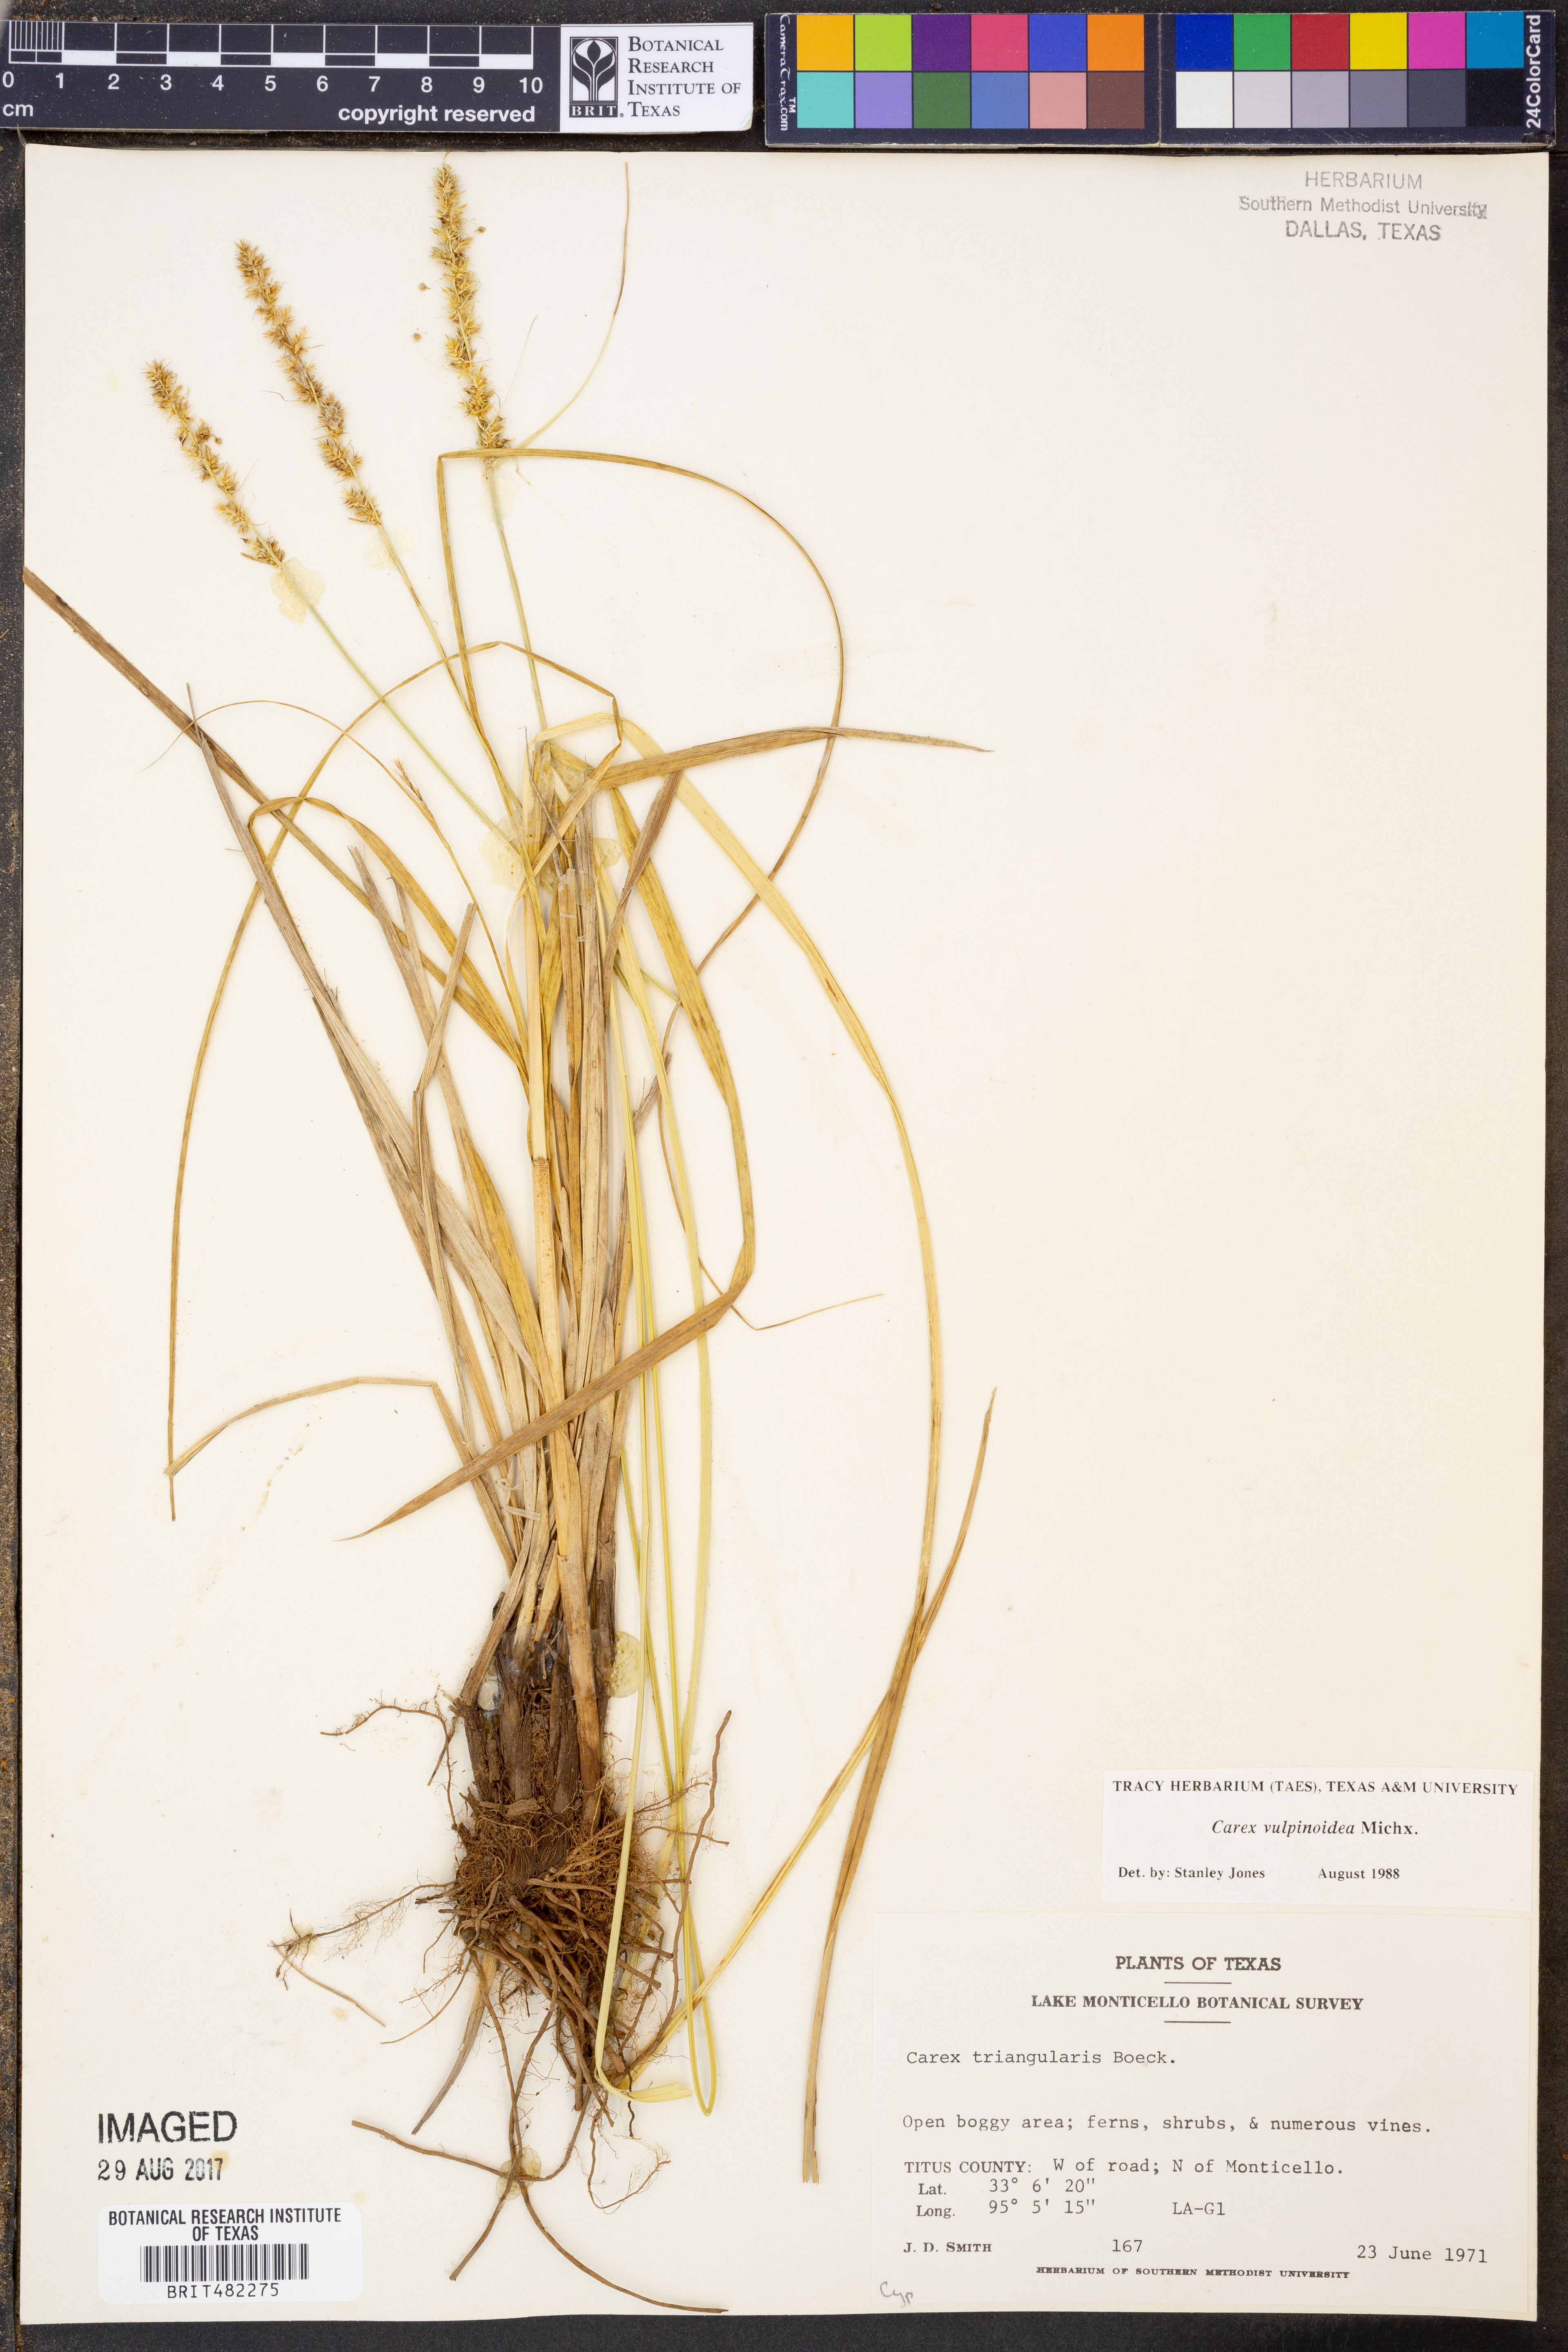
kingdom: Plantae
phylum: Tracheophyta
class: Liliopsida
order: Poales
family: Cyperaceae
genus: Carex
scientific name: Carex vulpinoidea
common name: American fox-sedge
